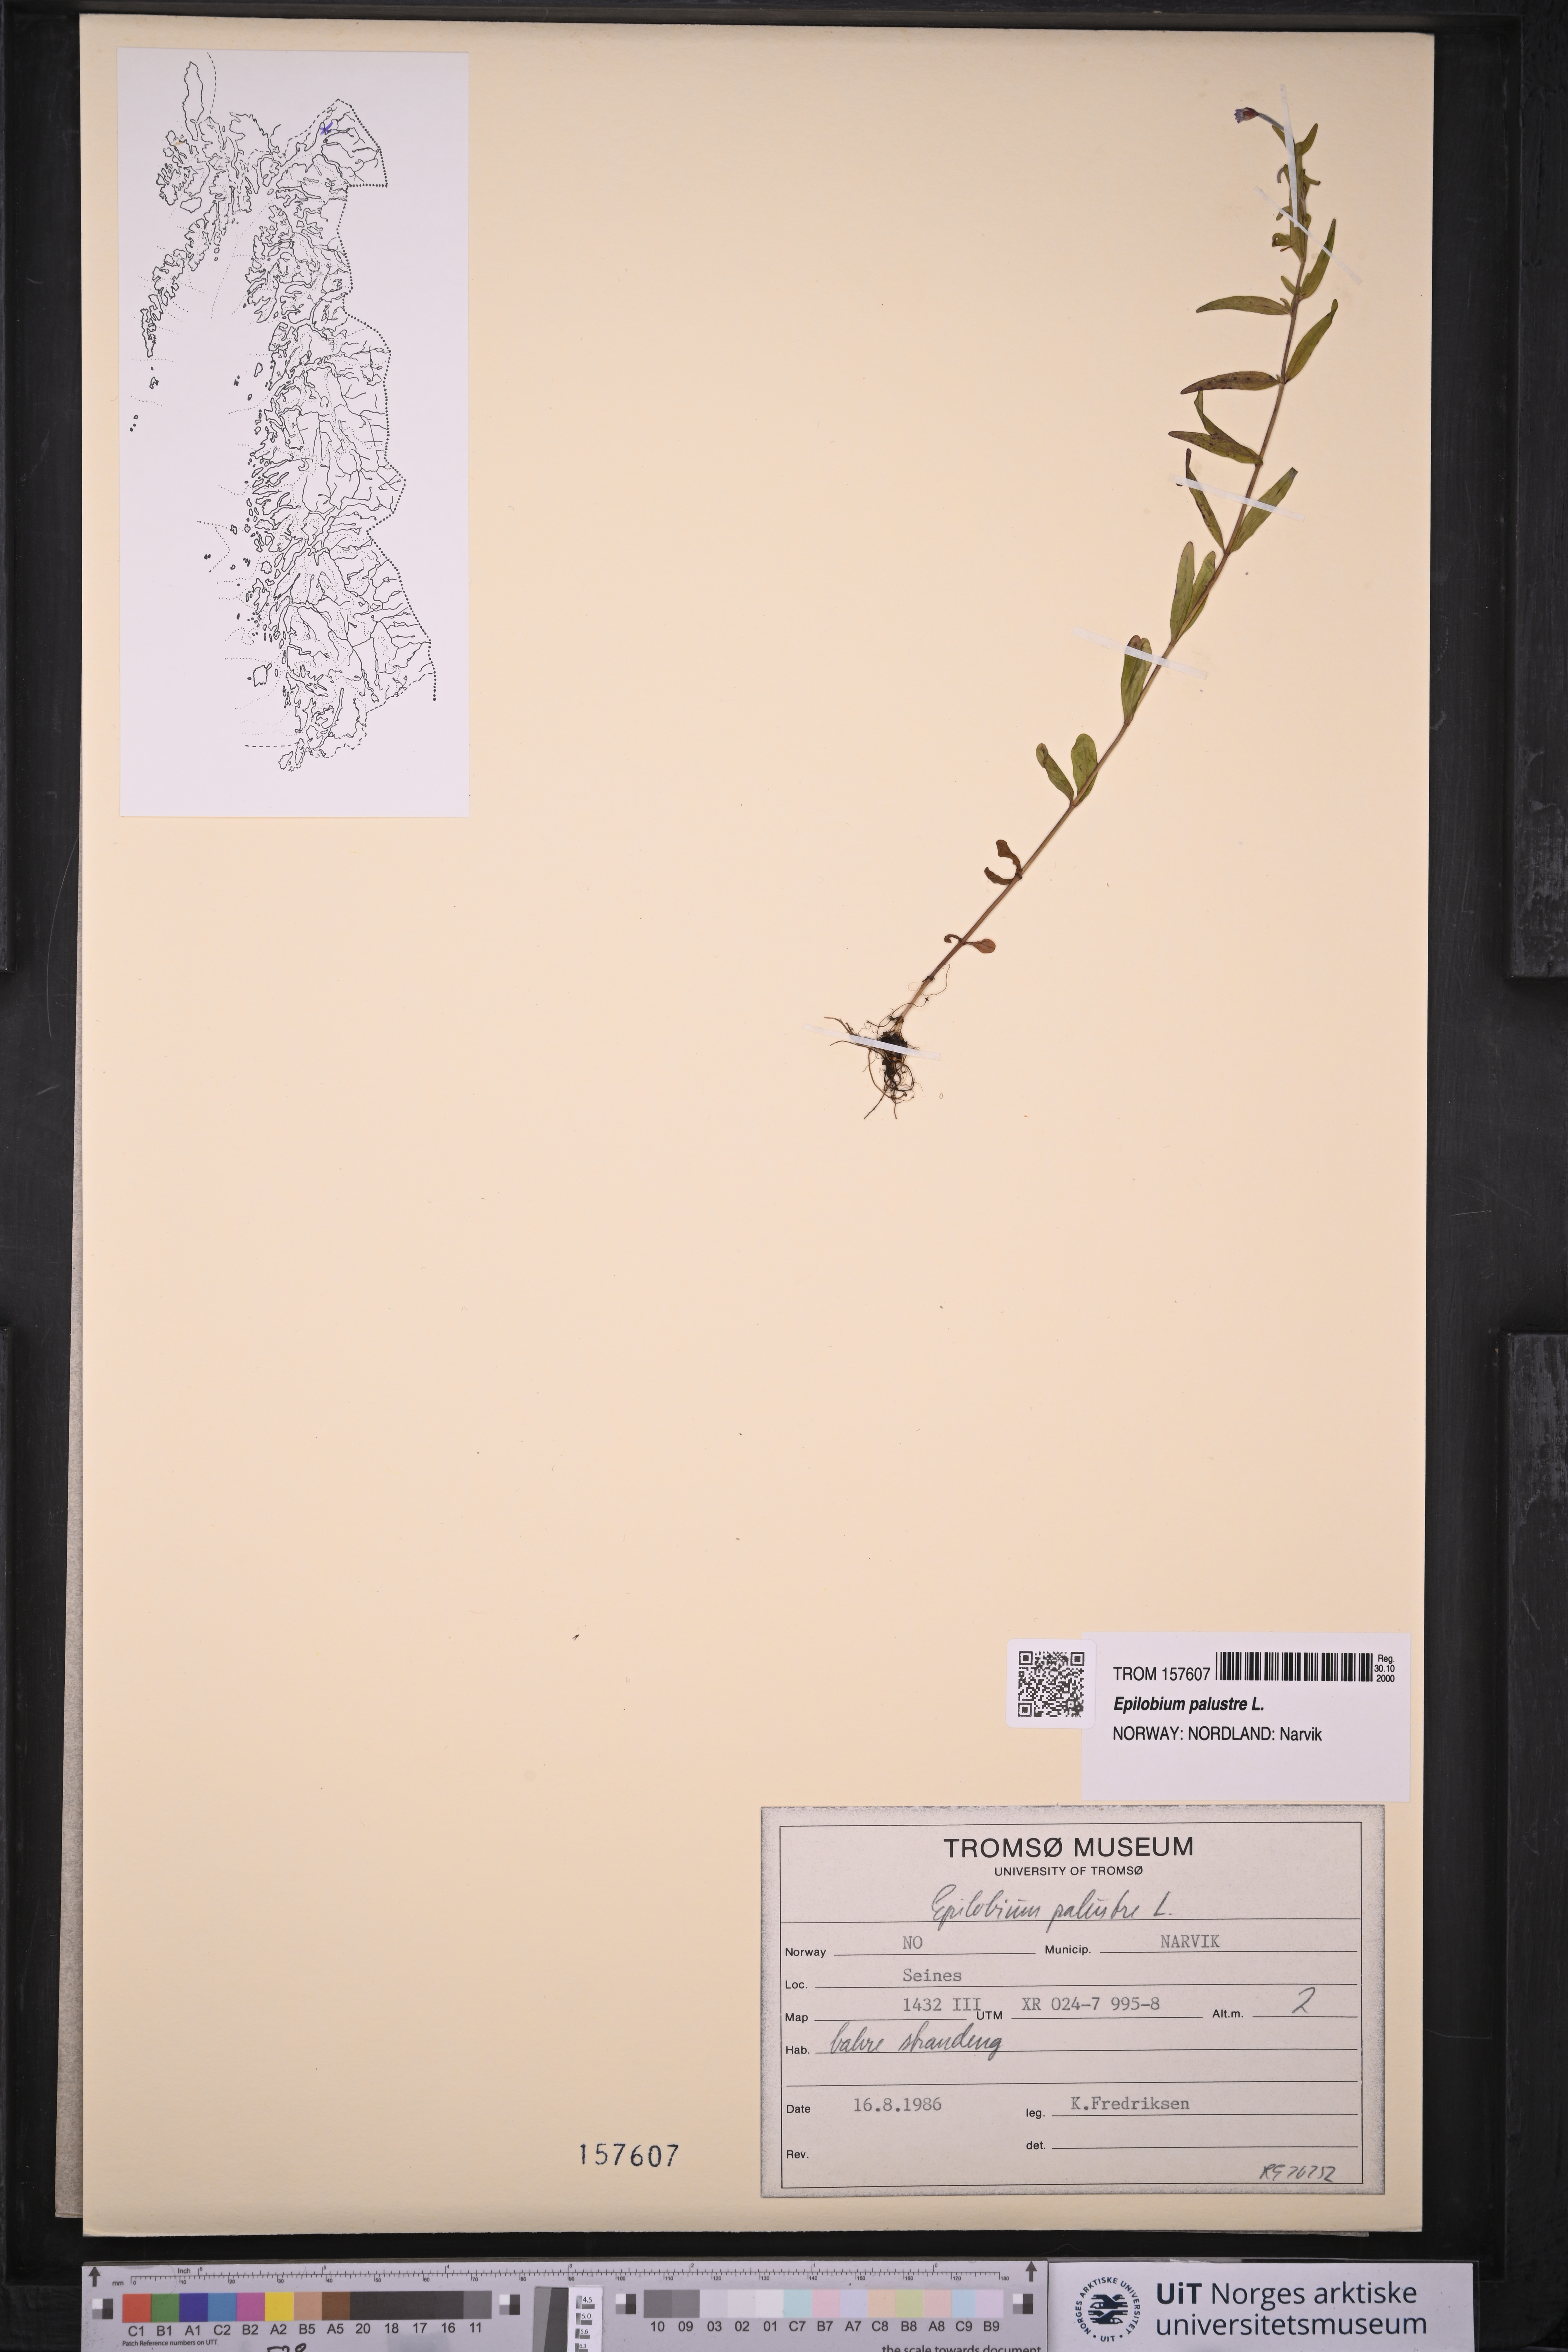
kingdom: Plantae
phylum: Tracheophyta
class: Magnoliopsida
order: Myrtales
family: Onagraceae
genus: Epilobium
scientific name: Epilobium palustre
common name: Marsh willowherb
